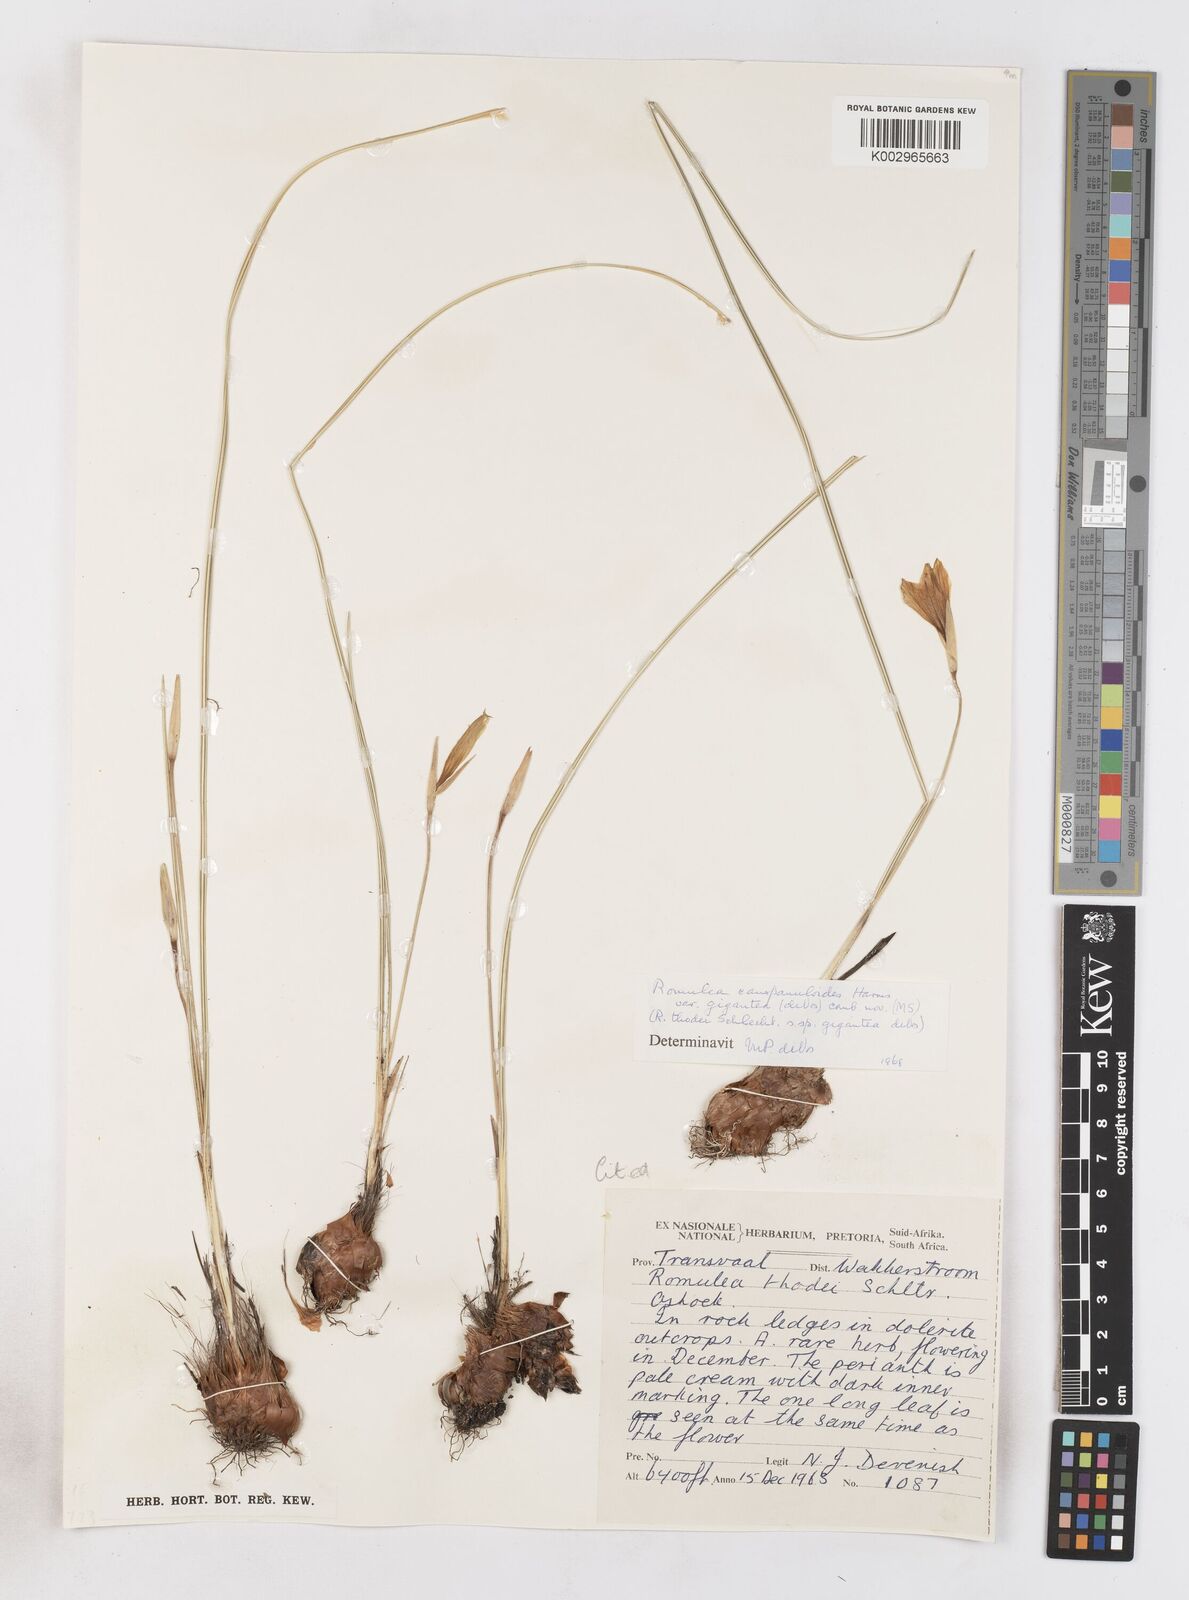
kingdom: Plantae
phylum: Tracheophyta
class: Liliopsida
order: Asparagales
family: Iridaceae
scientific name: Iridaceae
